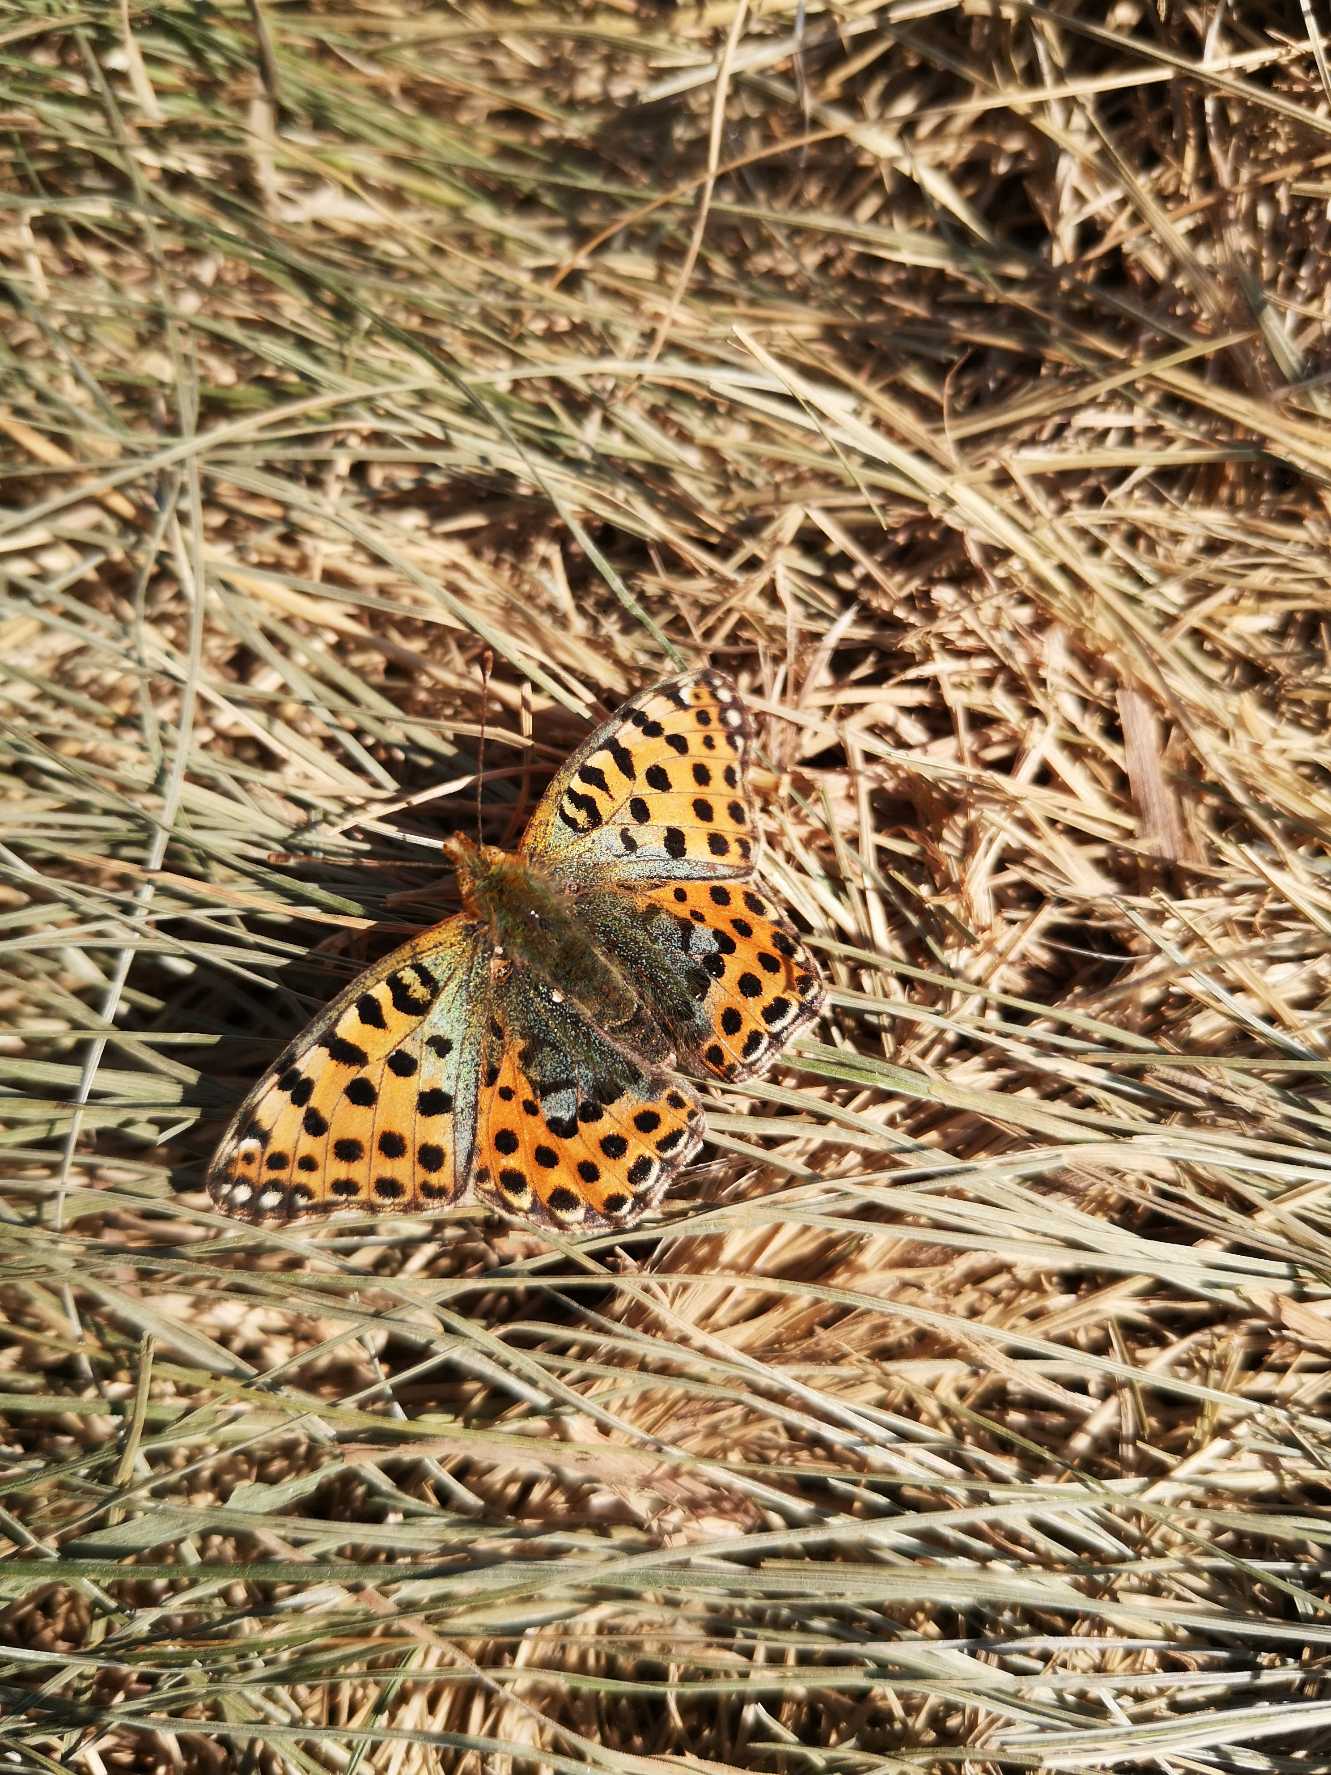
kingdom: Animalia
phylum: Arthropoda
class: Insecta
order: Lepidoptera
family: Nymphalidae
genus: Issoria
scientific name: Issoria lathonia
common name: Storplettet perlemorsommerfugl
